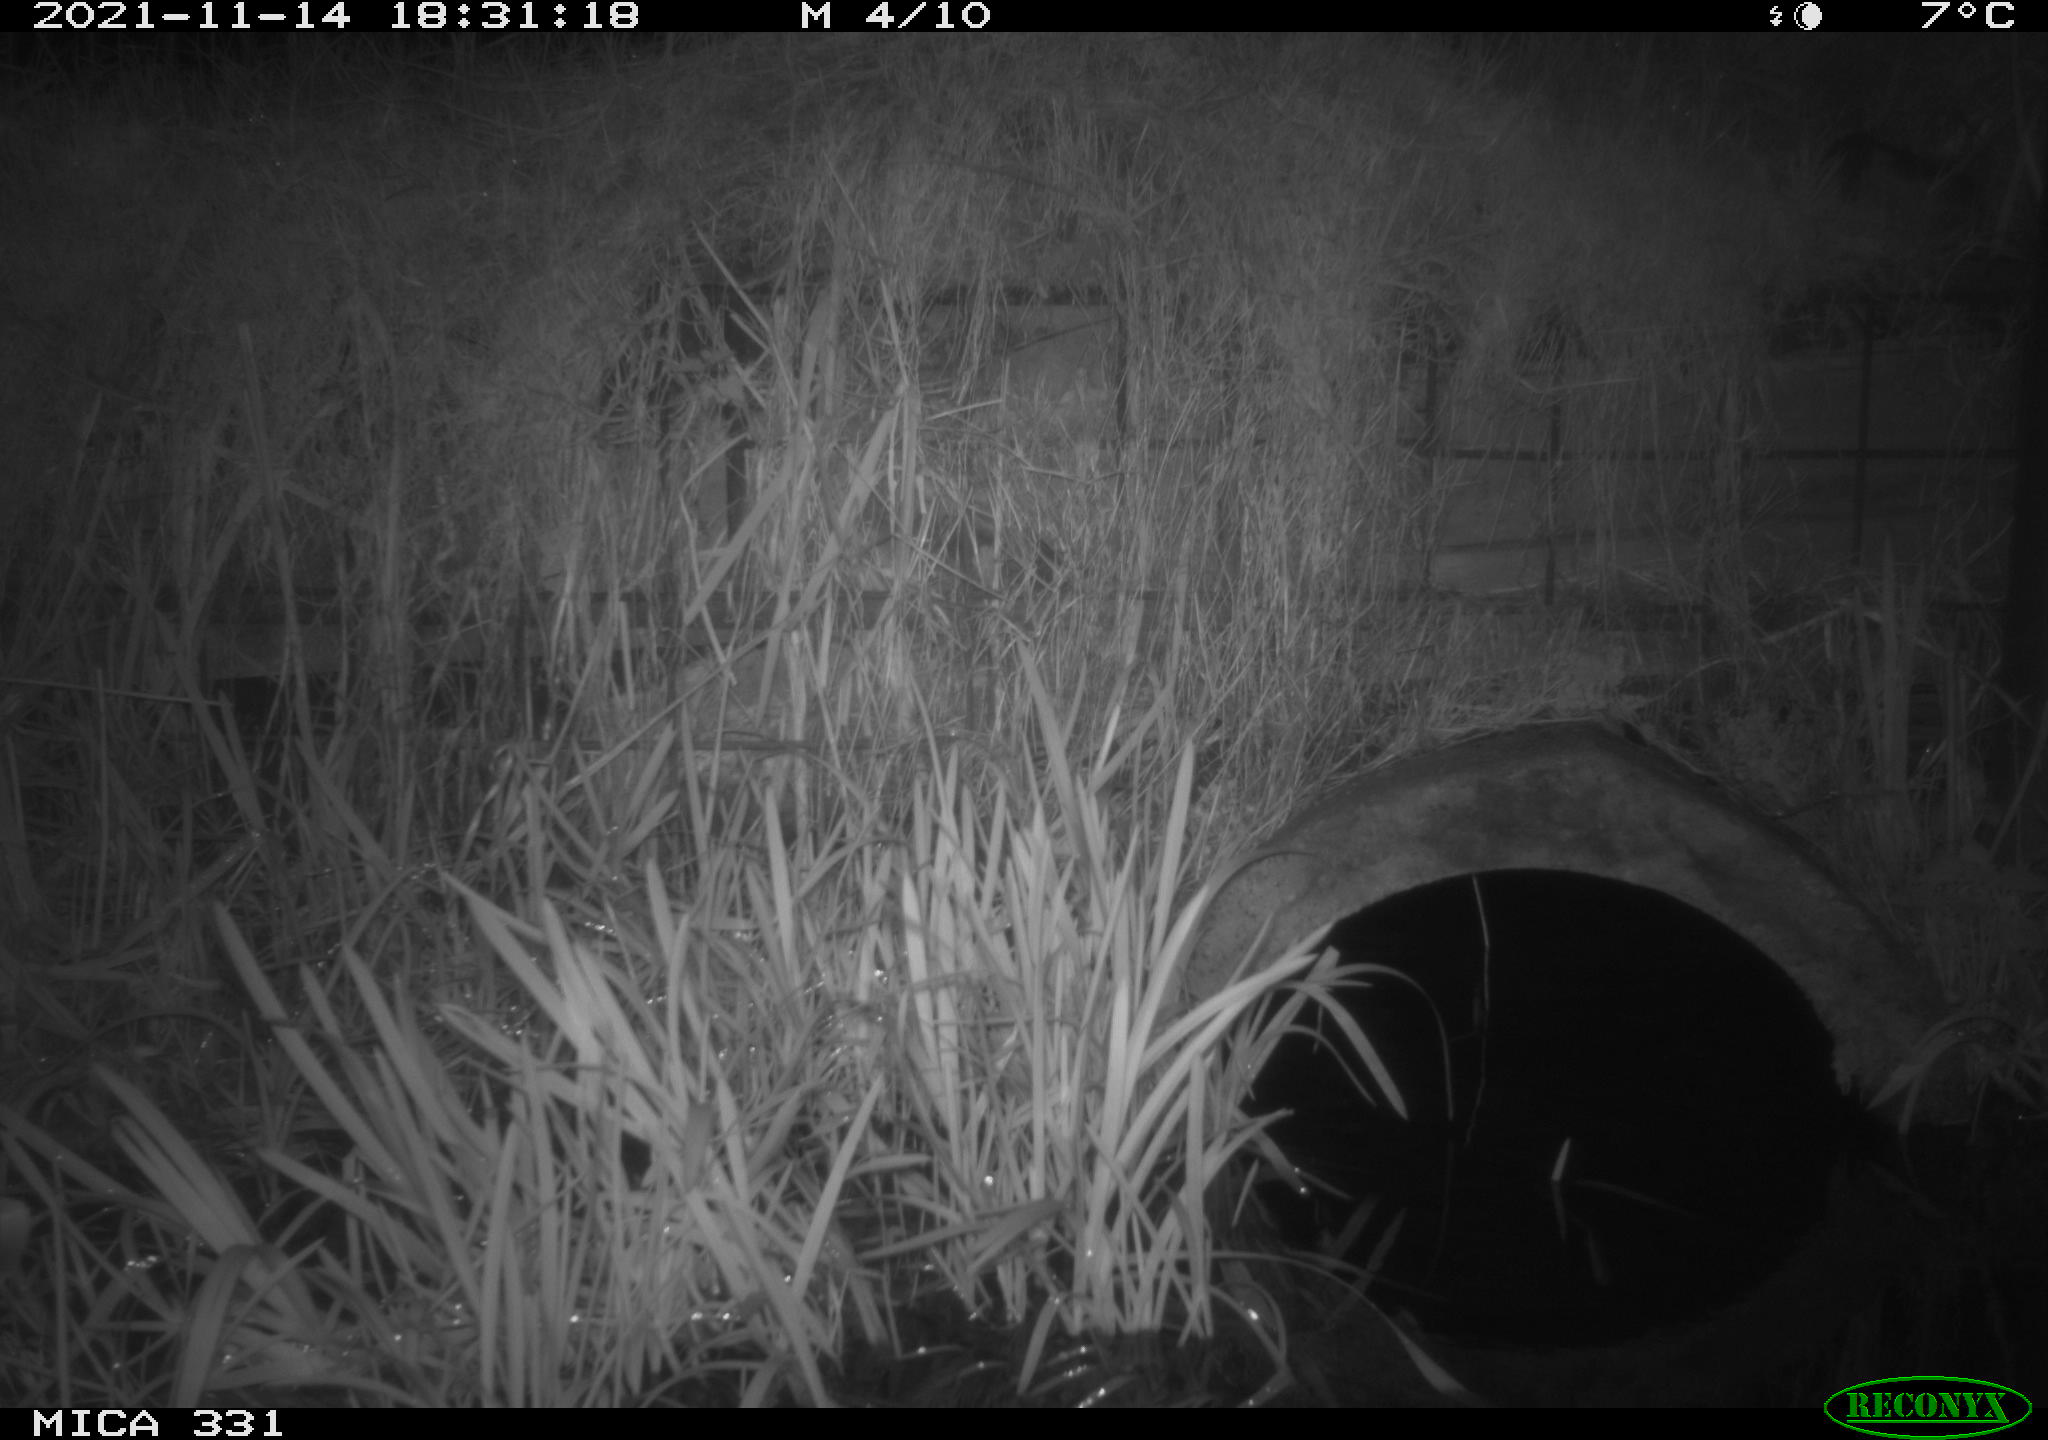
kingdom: Animalia
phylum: Chordata
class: Mammalia
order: Rodentia
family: Muridae
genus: Rattus
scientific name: Rattus norvegicus
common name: Brown rat
